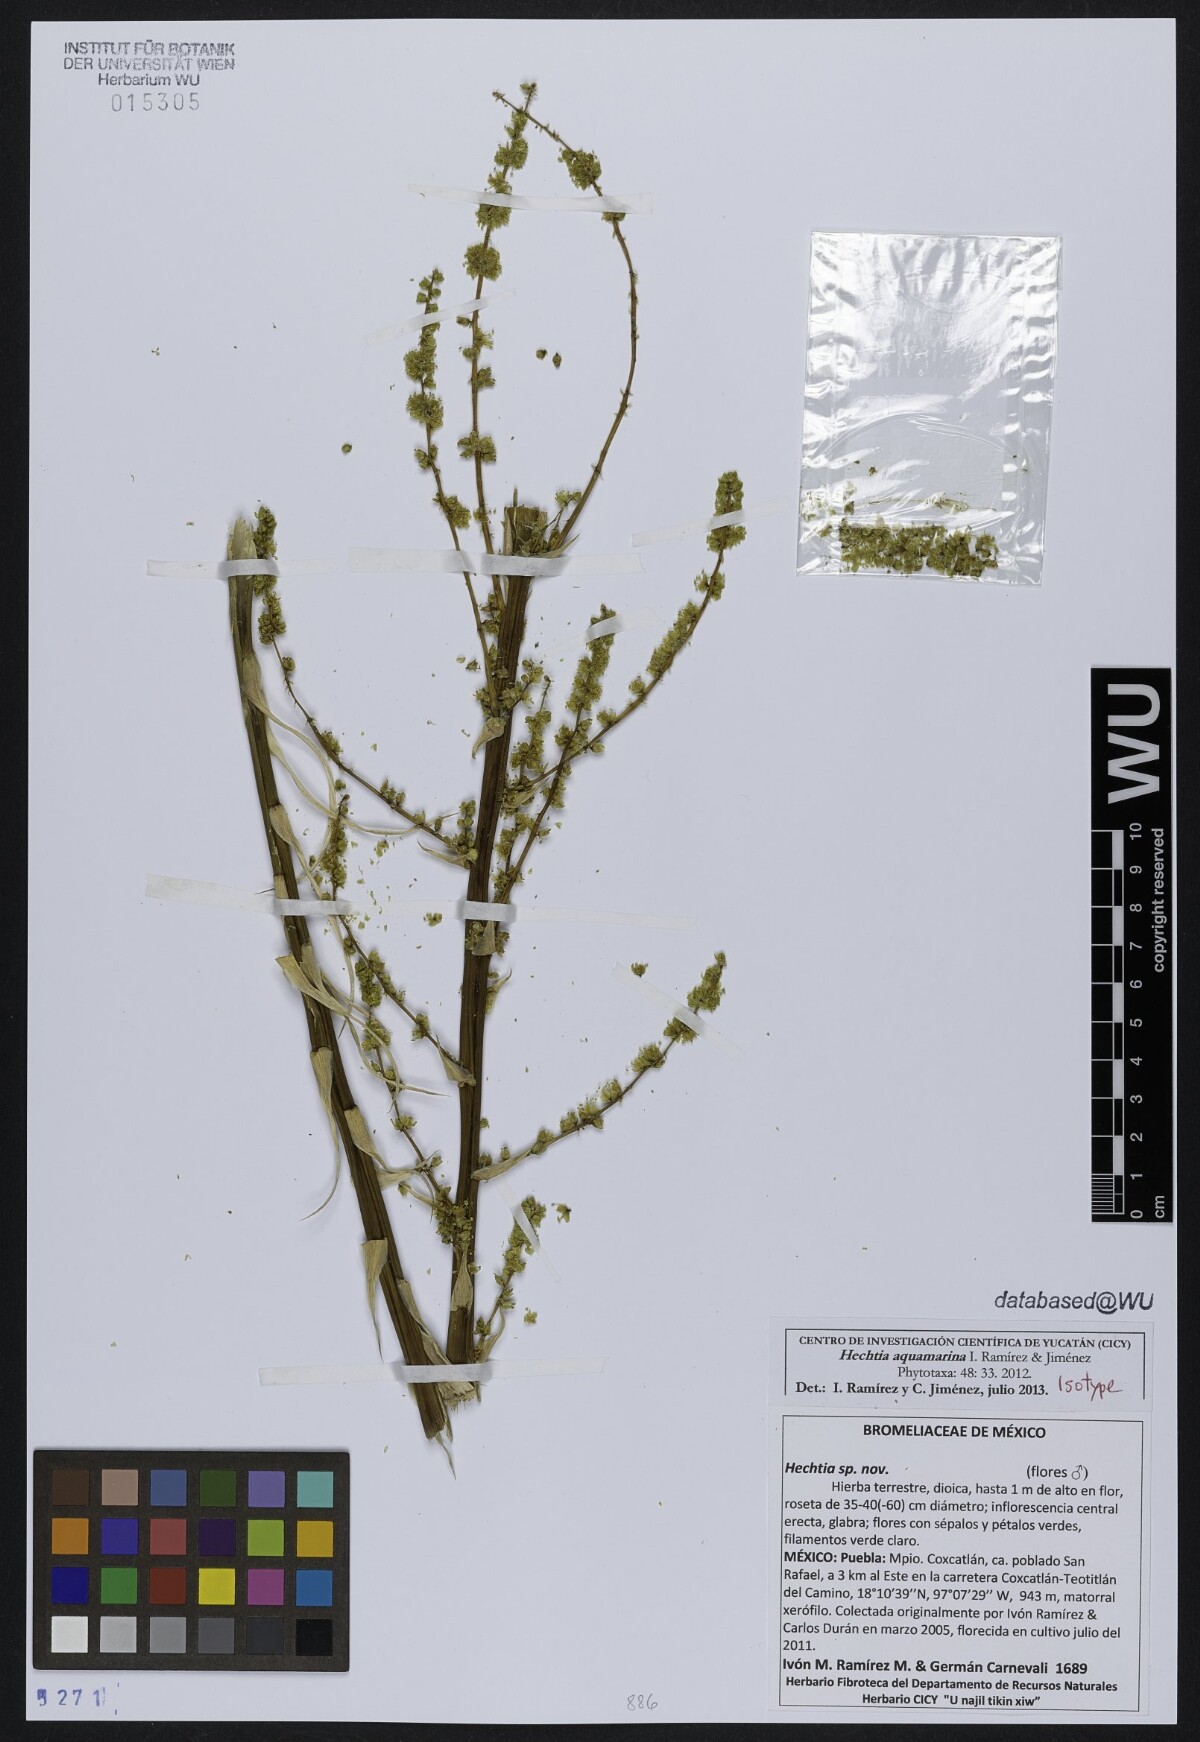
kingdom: Plantae
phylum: Tracheophyta
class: Liliopsida
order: Poales
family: Bromeliaceae
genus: Hechtia
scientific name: Hechtia aquamarina
